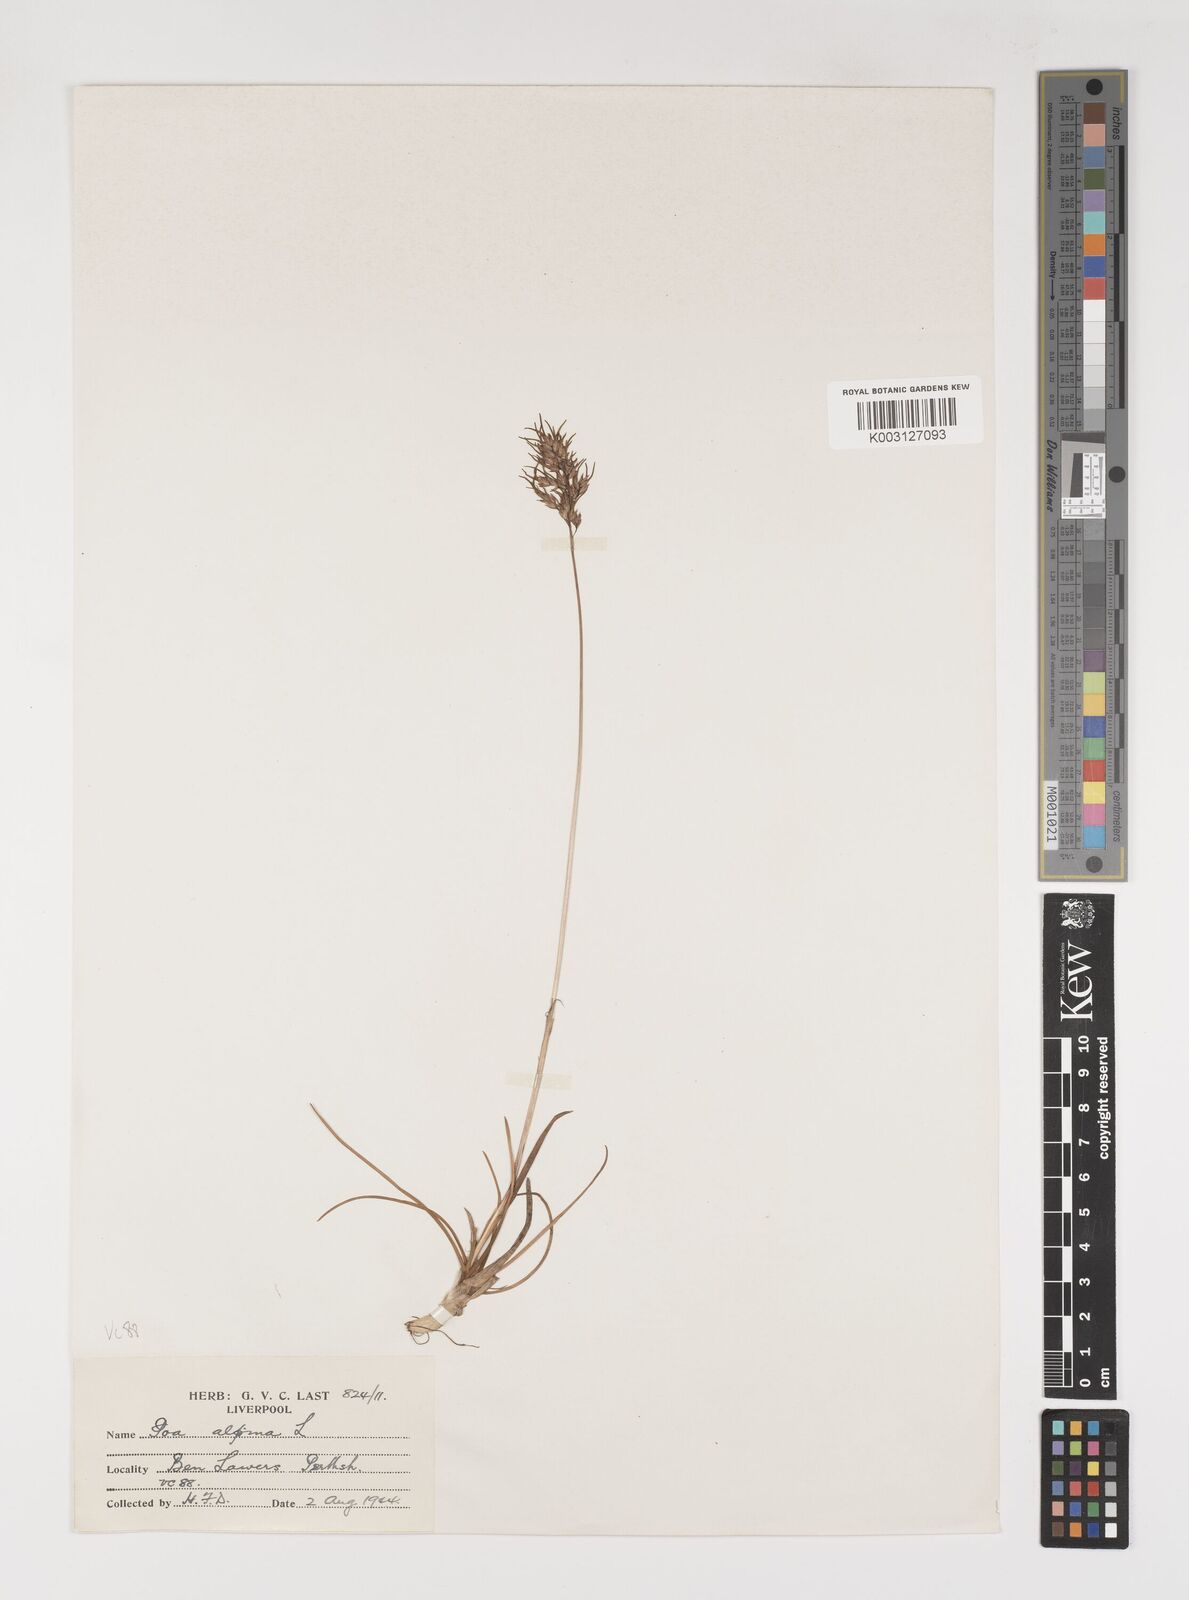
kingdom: Plantae
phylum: Tracheophyta
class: Liliopsida
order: Poales
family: Poaceae
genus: Poa
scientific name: Poa alpina
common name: Alpine bluegrass
